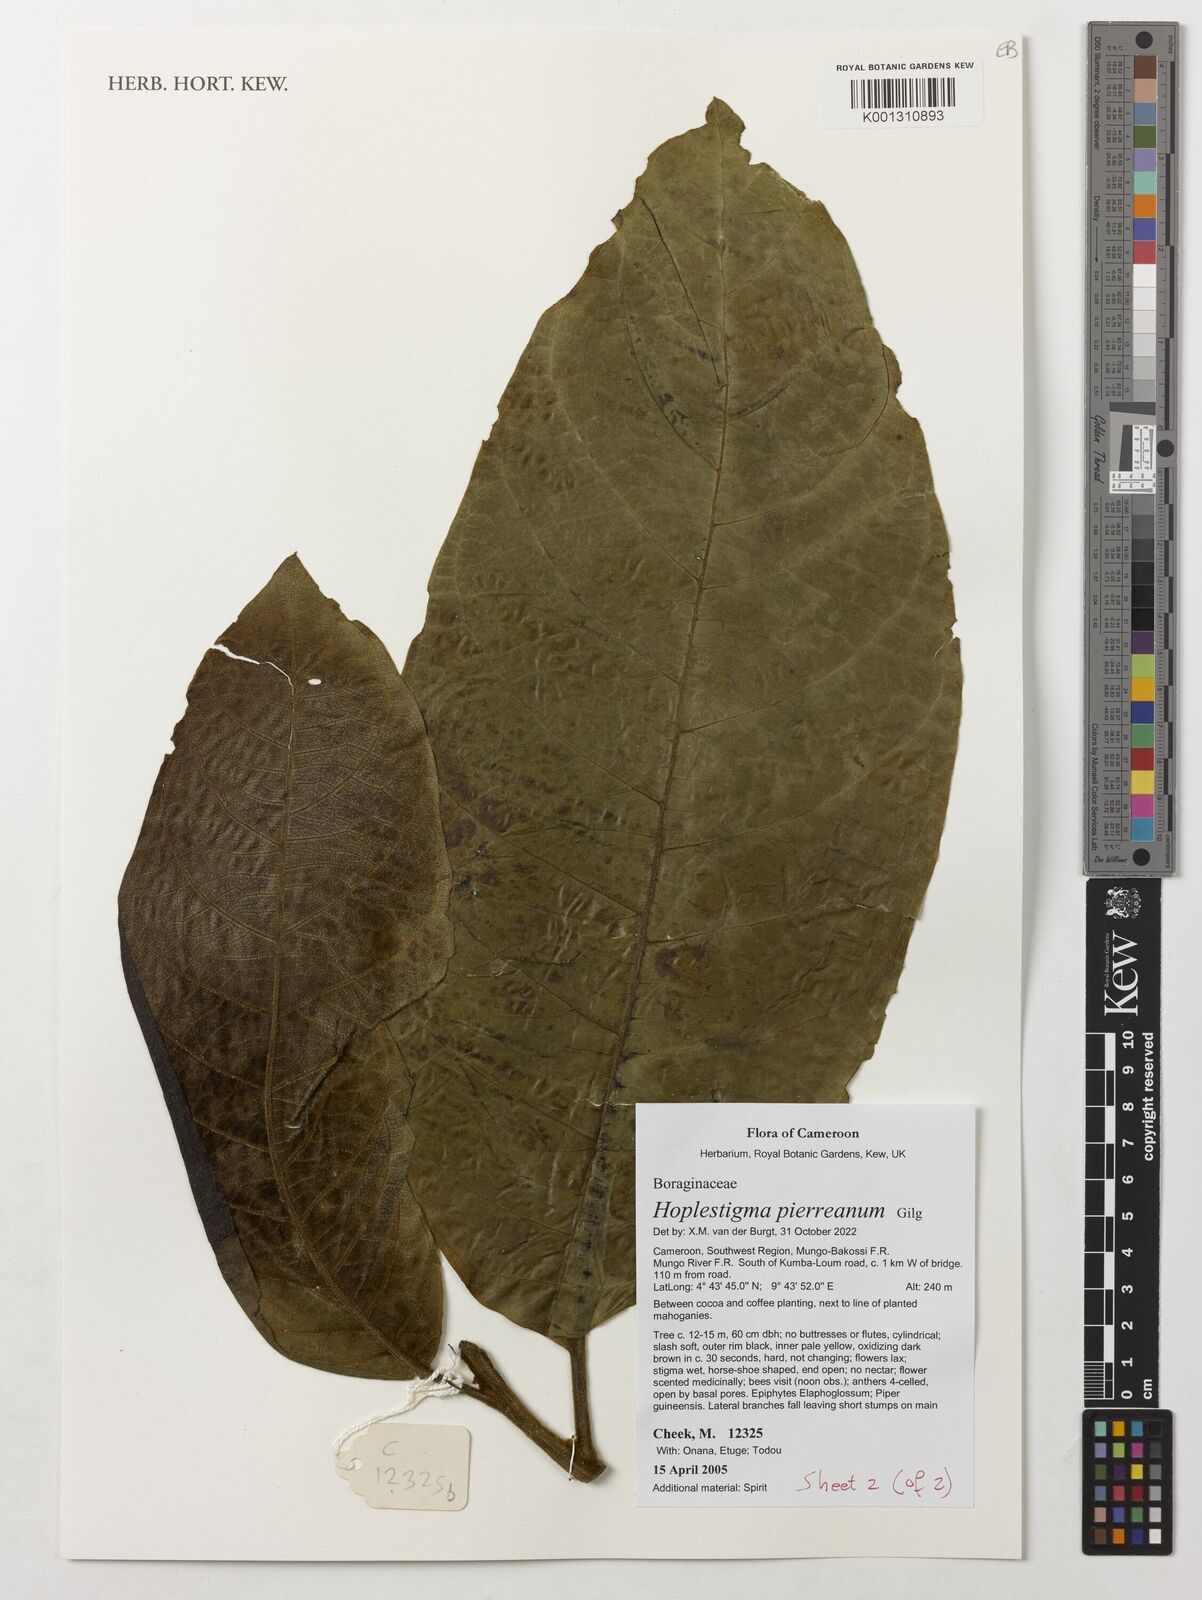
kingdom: Plantae
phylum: Tracheophyta
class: Magnoliopsida
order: Boraginales
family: Hoplestigmataceae
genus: Hoplestigma
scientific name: Hoplestigma pierreanum
